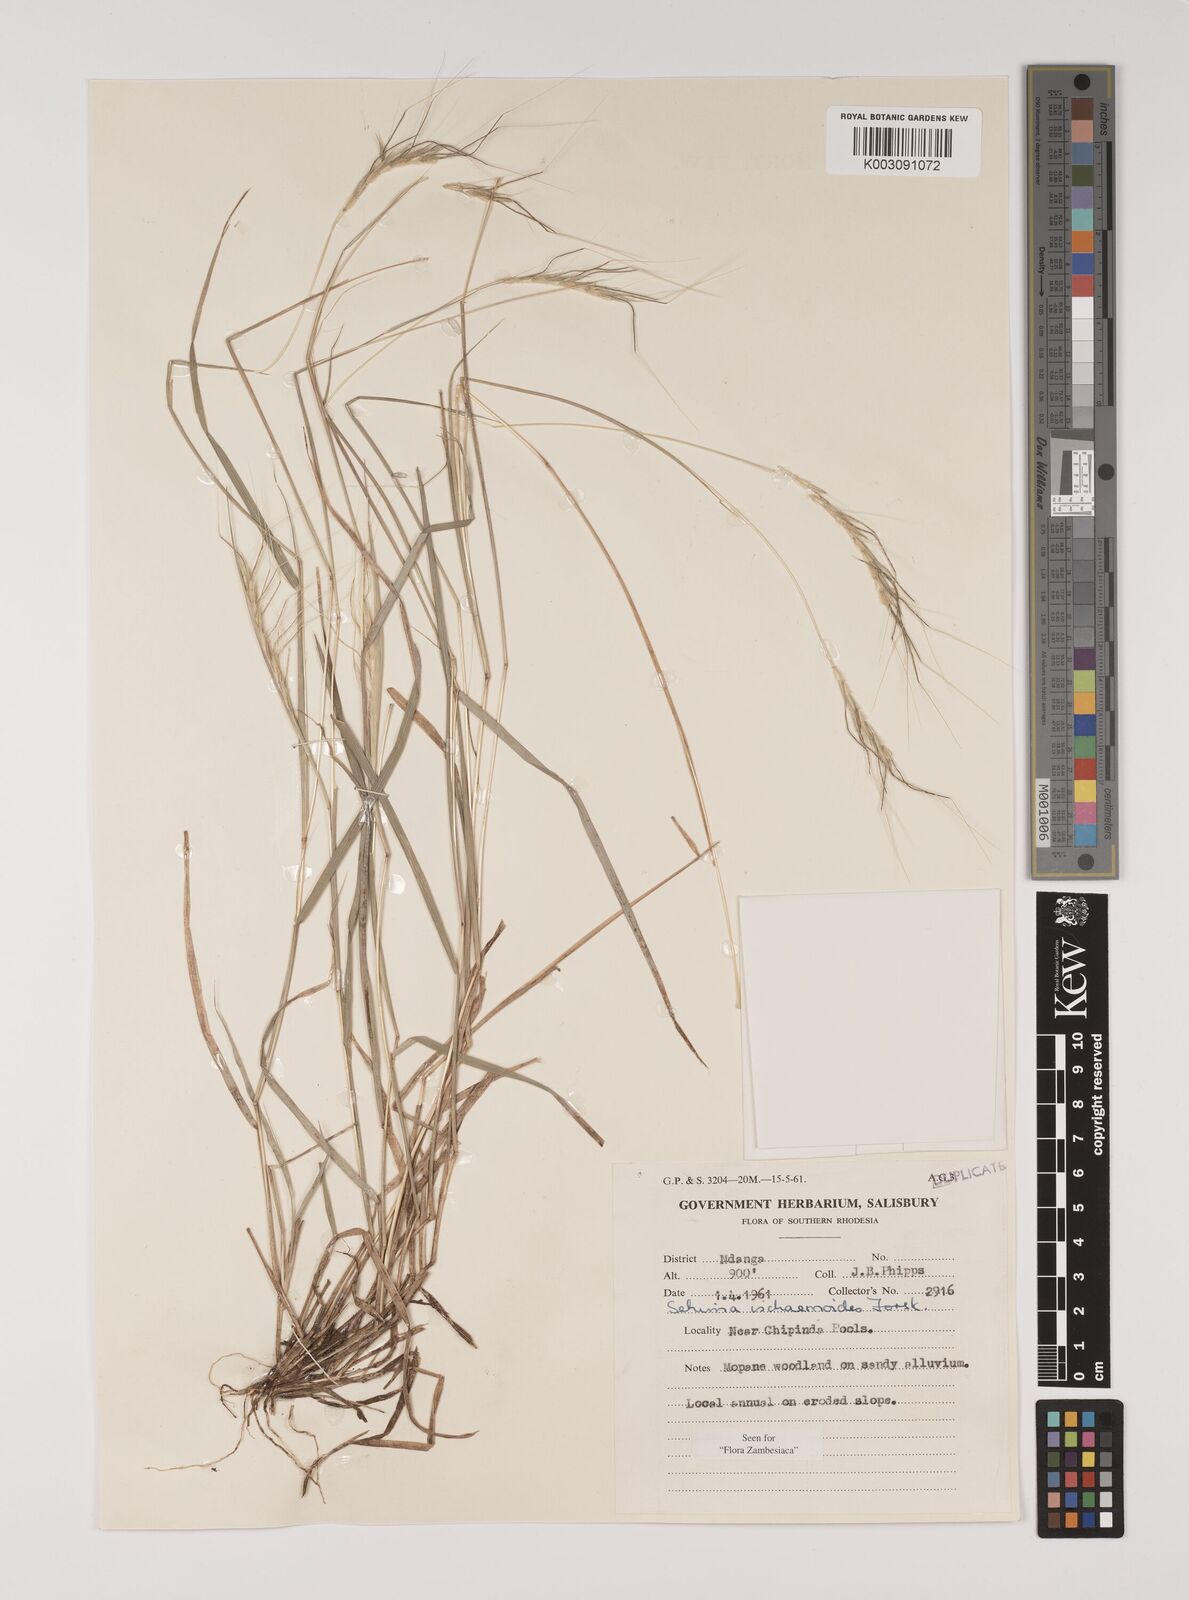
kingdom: Plantae
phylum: Tracheophyta
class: Liliopsida
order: Poales
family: Poaceae
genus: Sehima
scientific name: Sehima ischaemoides
